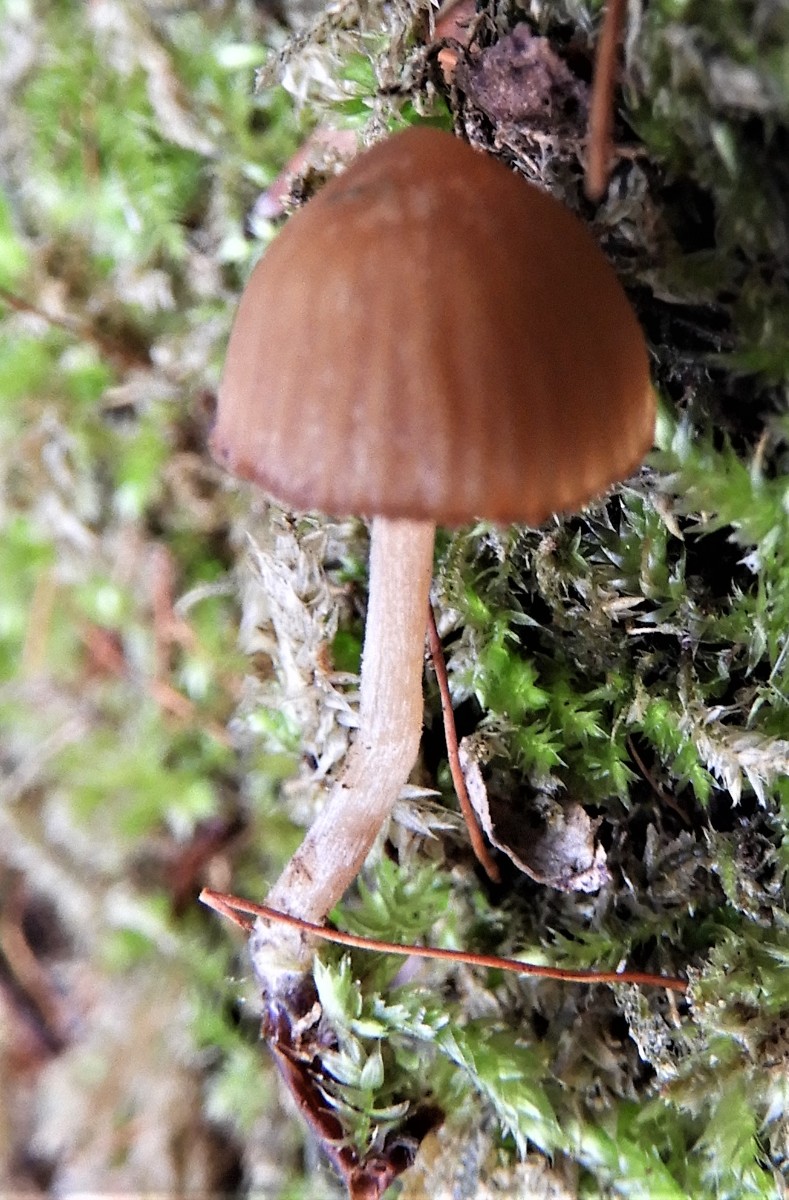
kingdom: Fungi
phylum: Basidiomycota
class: Agaricomycetes
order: Agaricales
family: Hymenogastraceae
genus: Galerina
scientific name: Galerina
